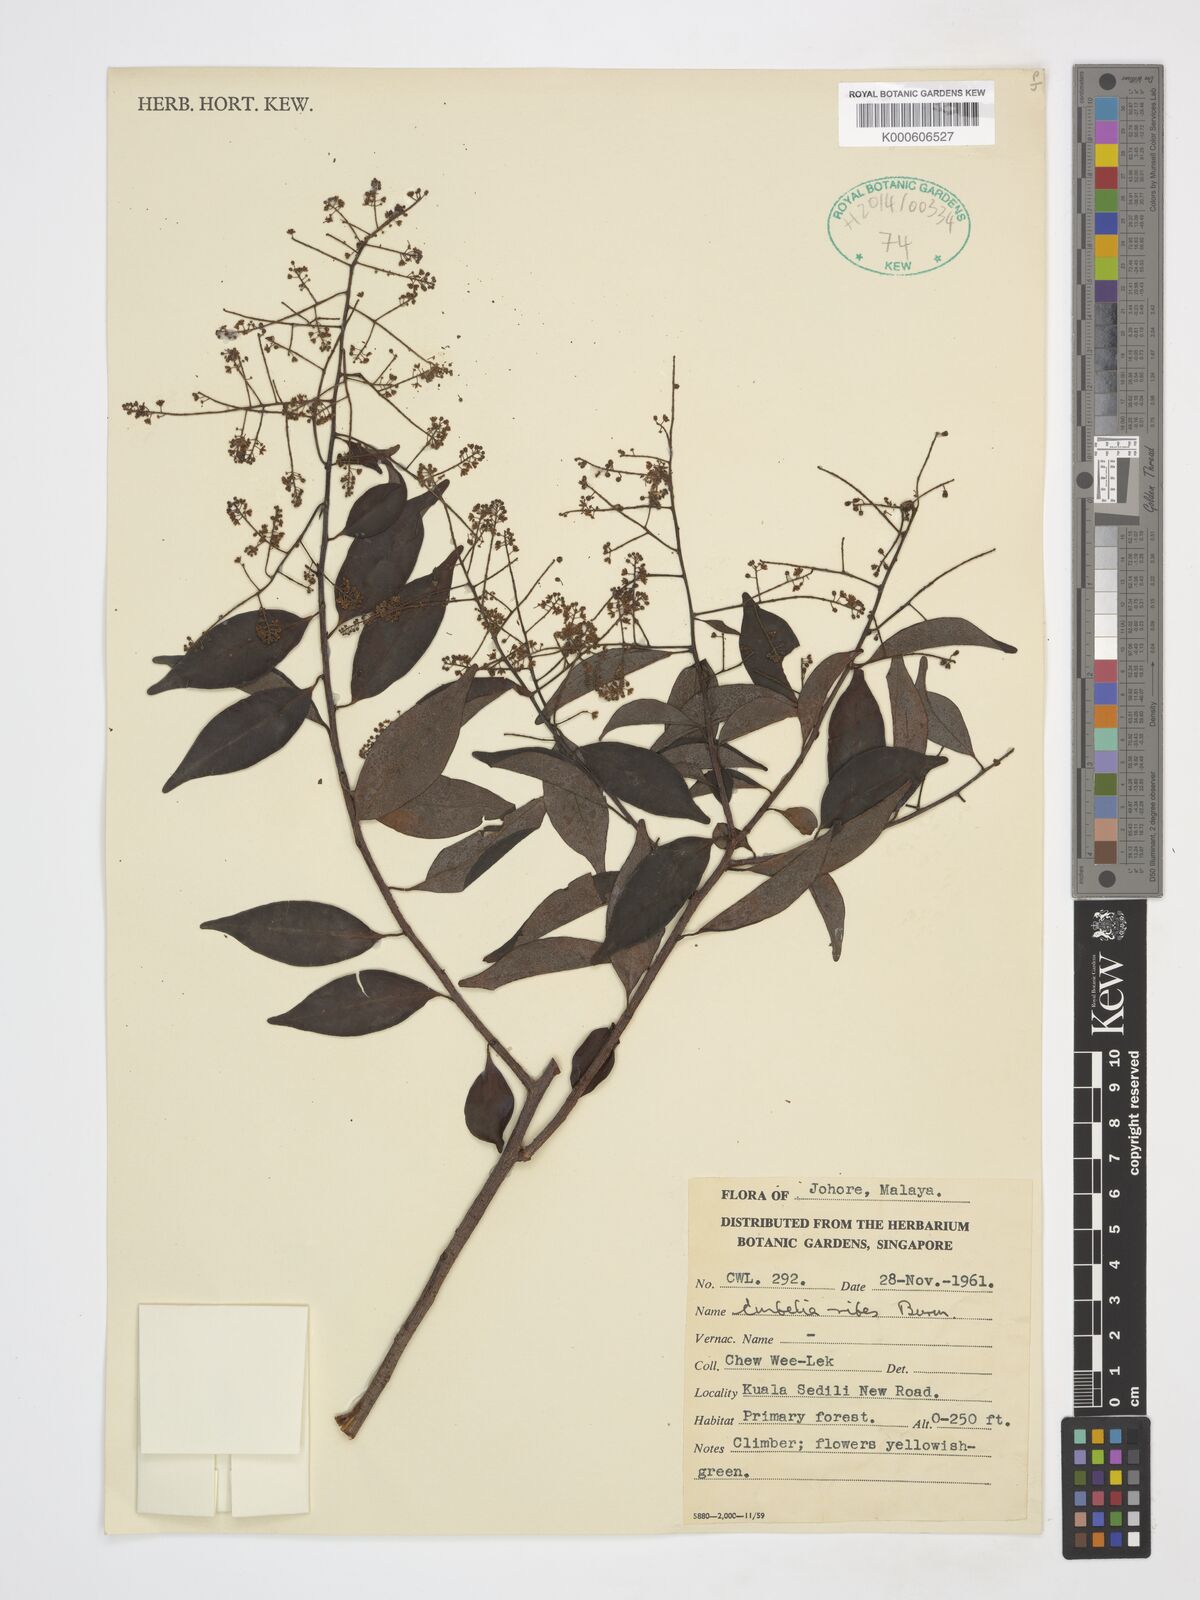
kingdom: Plantae
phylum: Tracheophyta
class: Magnoliopsida
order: Ericales
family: Primulaceae
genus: Embelia
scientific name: Embelia ribes
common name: Vidanga
